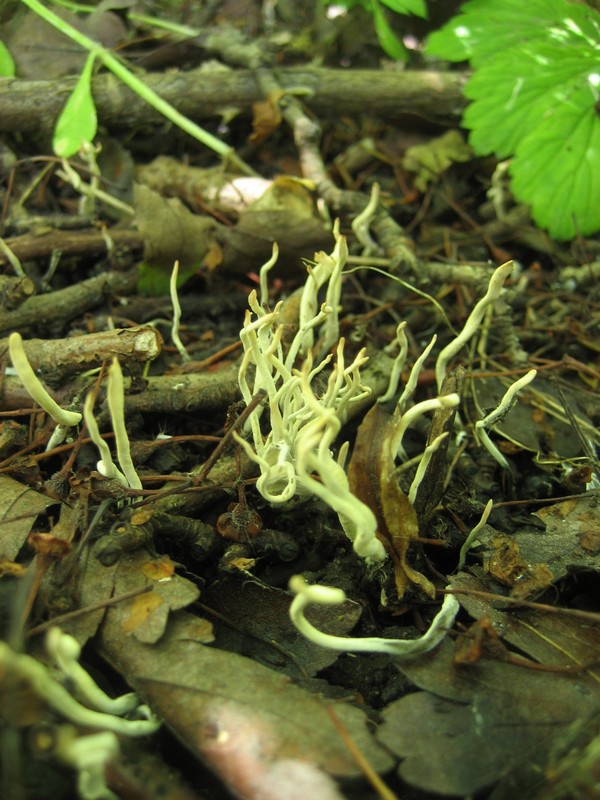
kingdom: Fungi
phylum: Ascomycota
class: Sordariomycetes
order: Xylariales
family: Xylariaceae
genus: Xylaria
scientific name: Xylaria oxyacanthae
